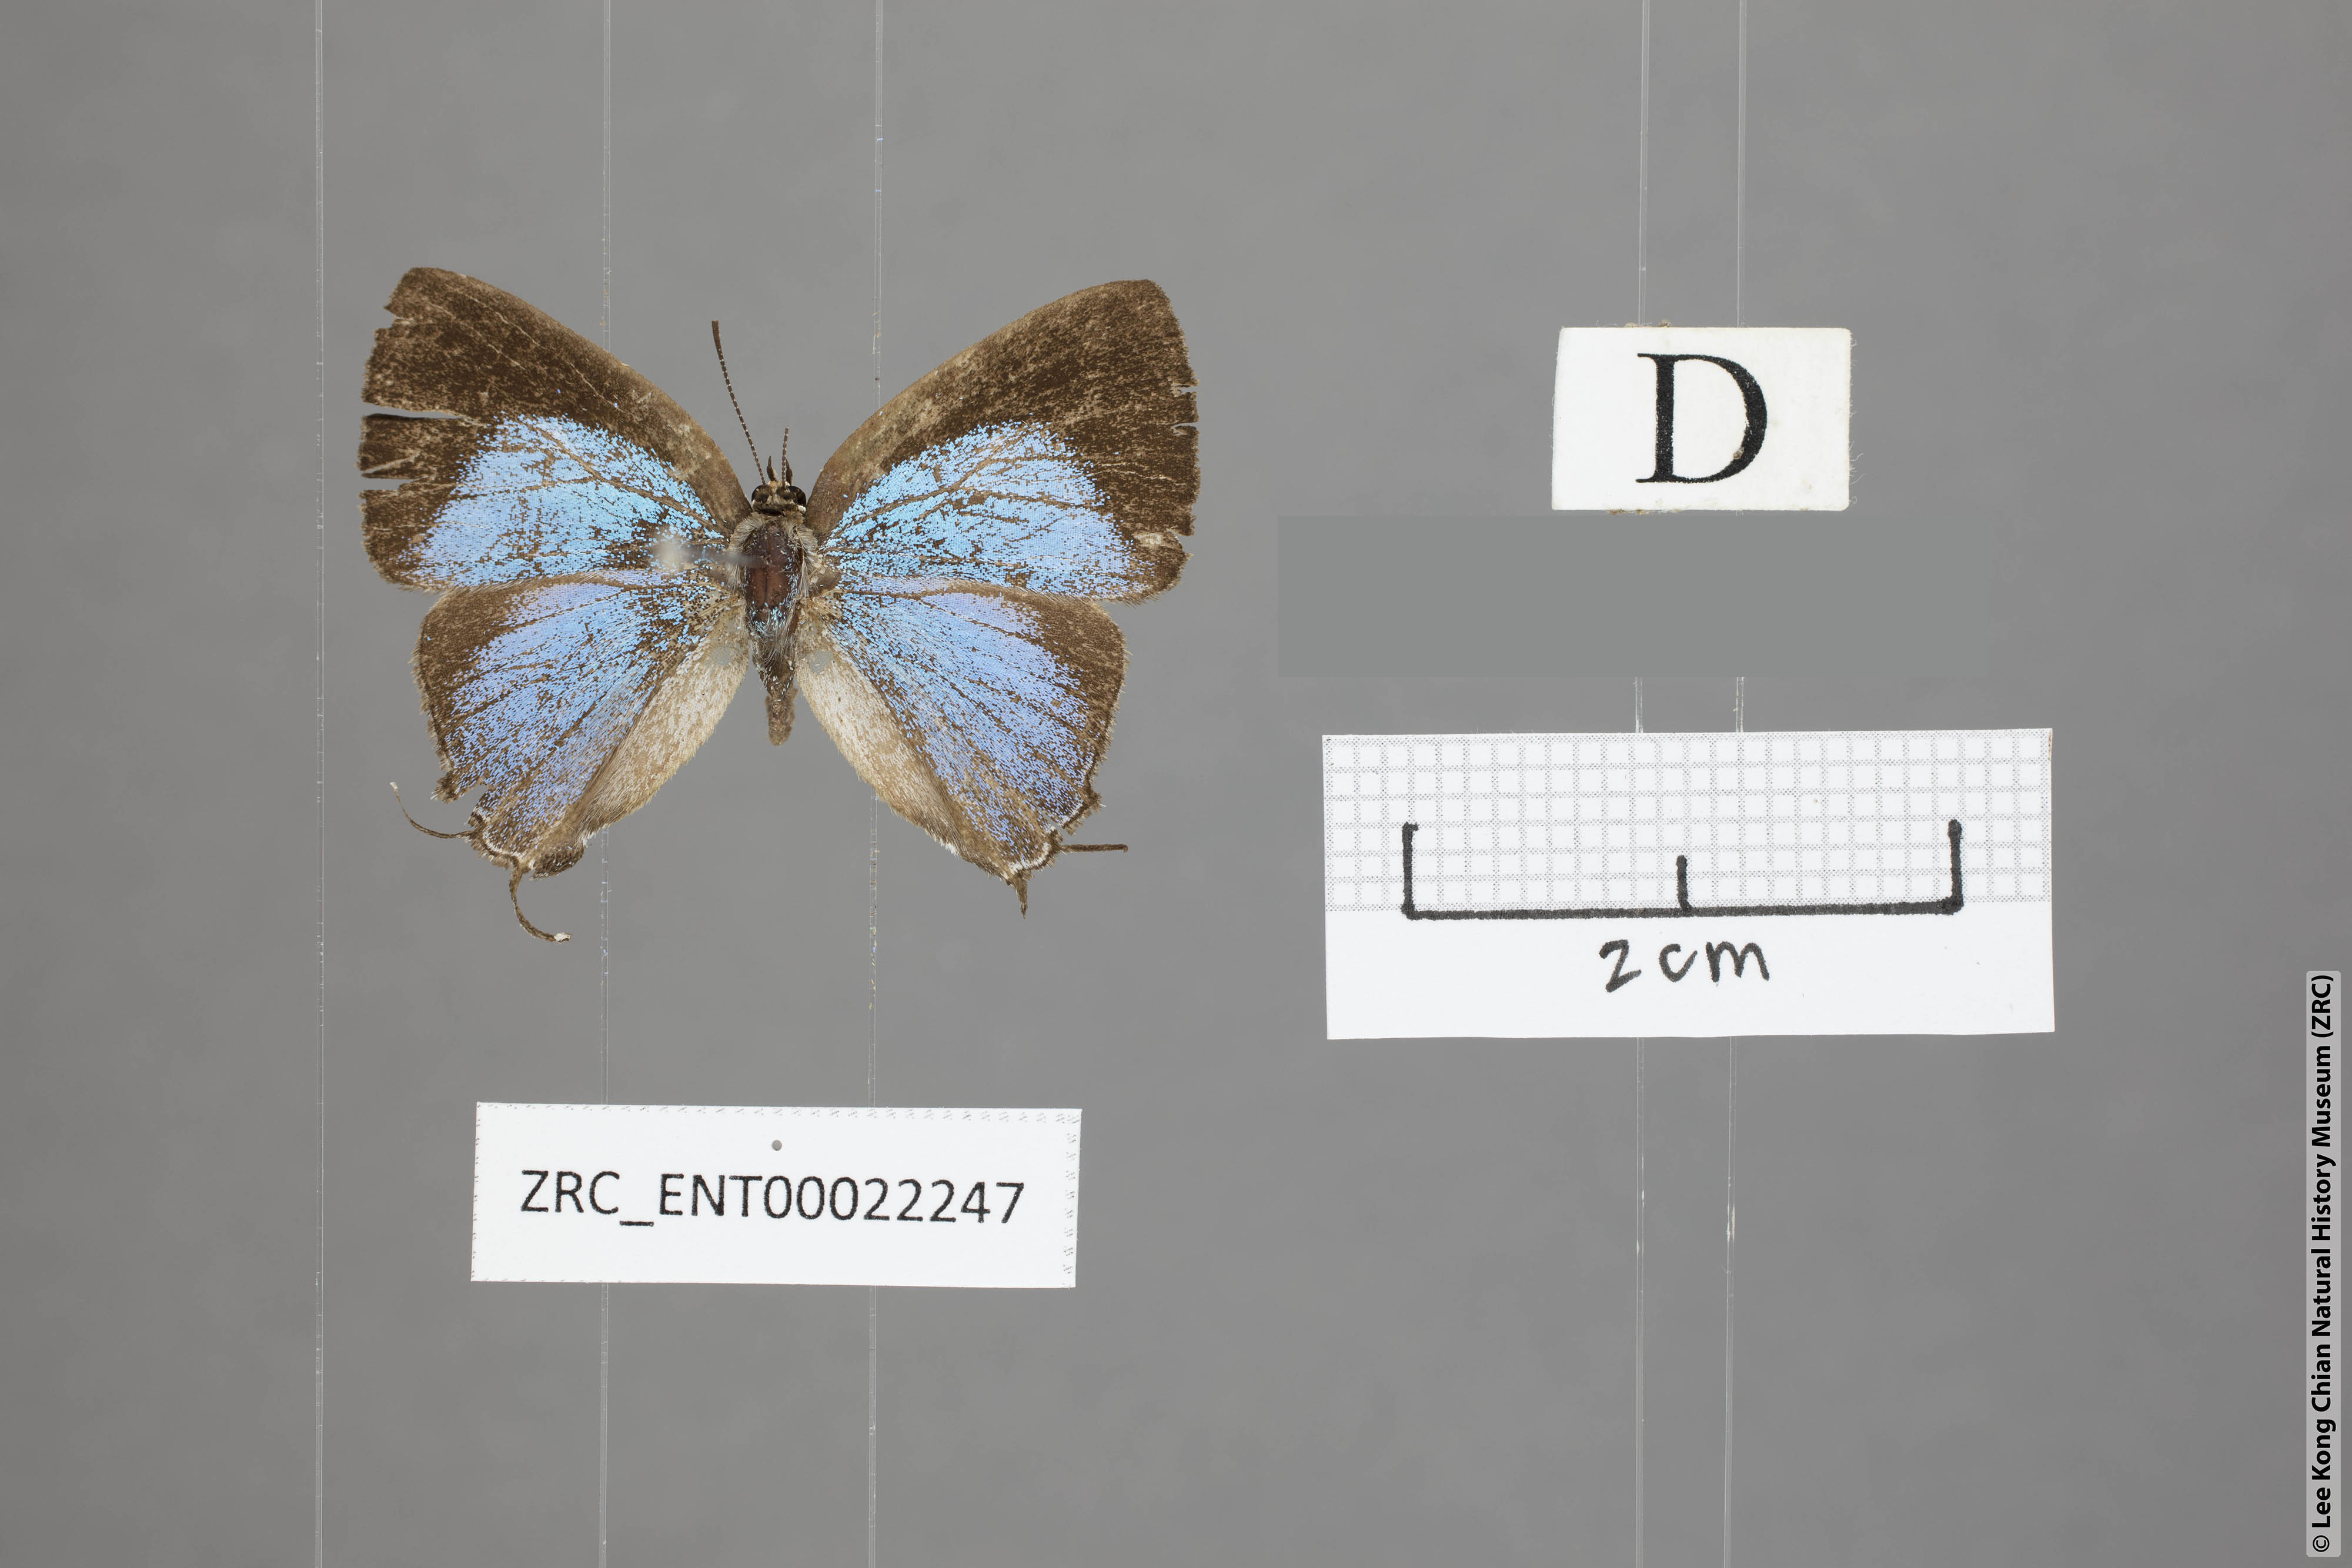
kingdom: Animalia
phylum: Arthropoda
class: Insecta
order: Lepidoptera
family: Lycaenidae
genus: Tajuria
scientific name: Tajuria yajna
